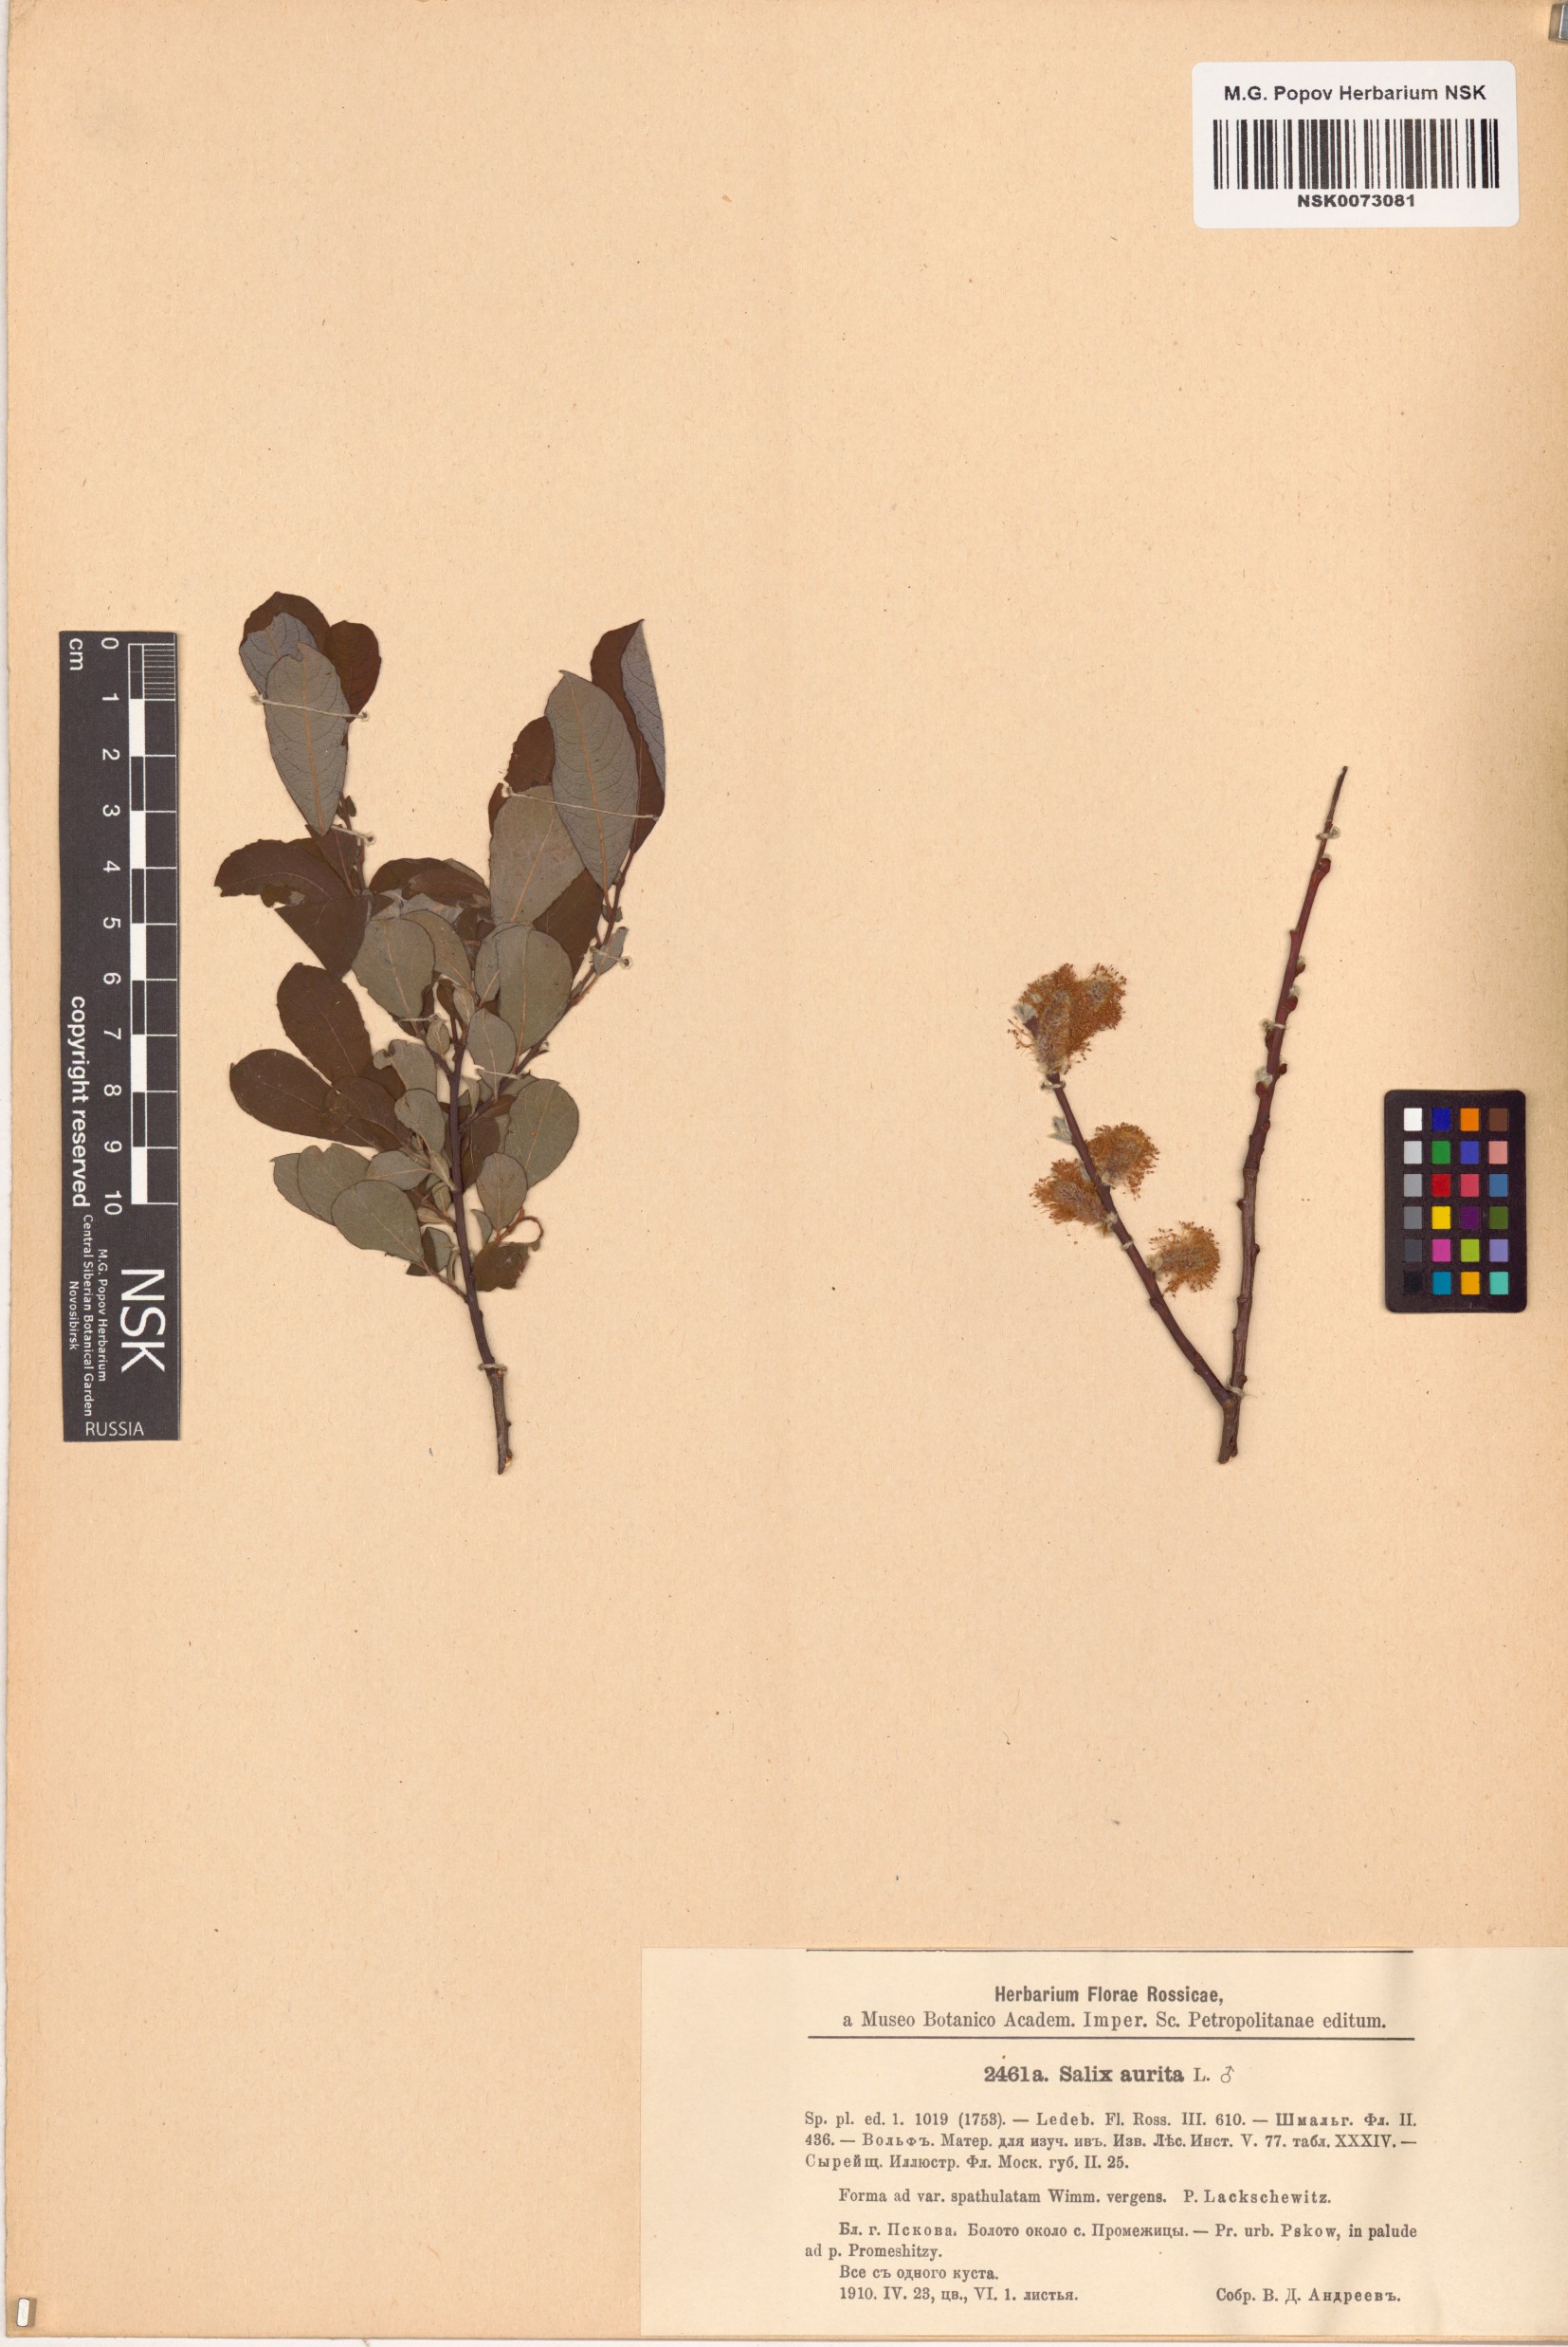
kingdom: Plantae
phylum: Tracheophyta
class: Magnoliopsida
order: Malpighiales
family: Salicaceae
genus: Salix
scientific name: Salix aurita
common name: Eared willow
